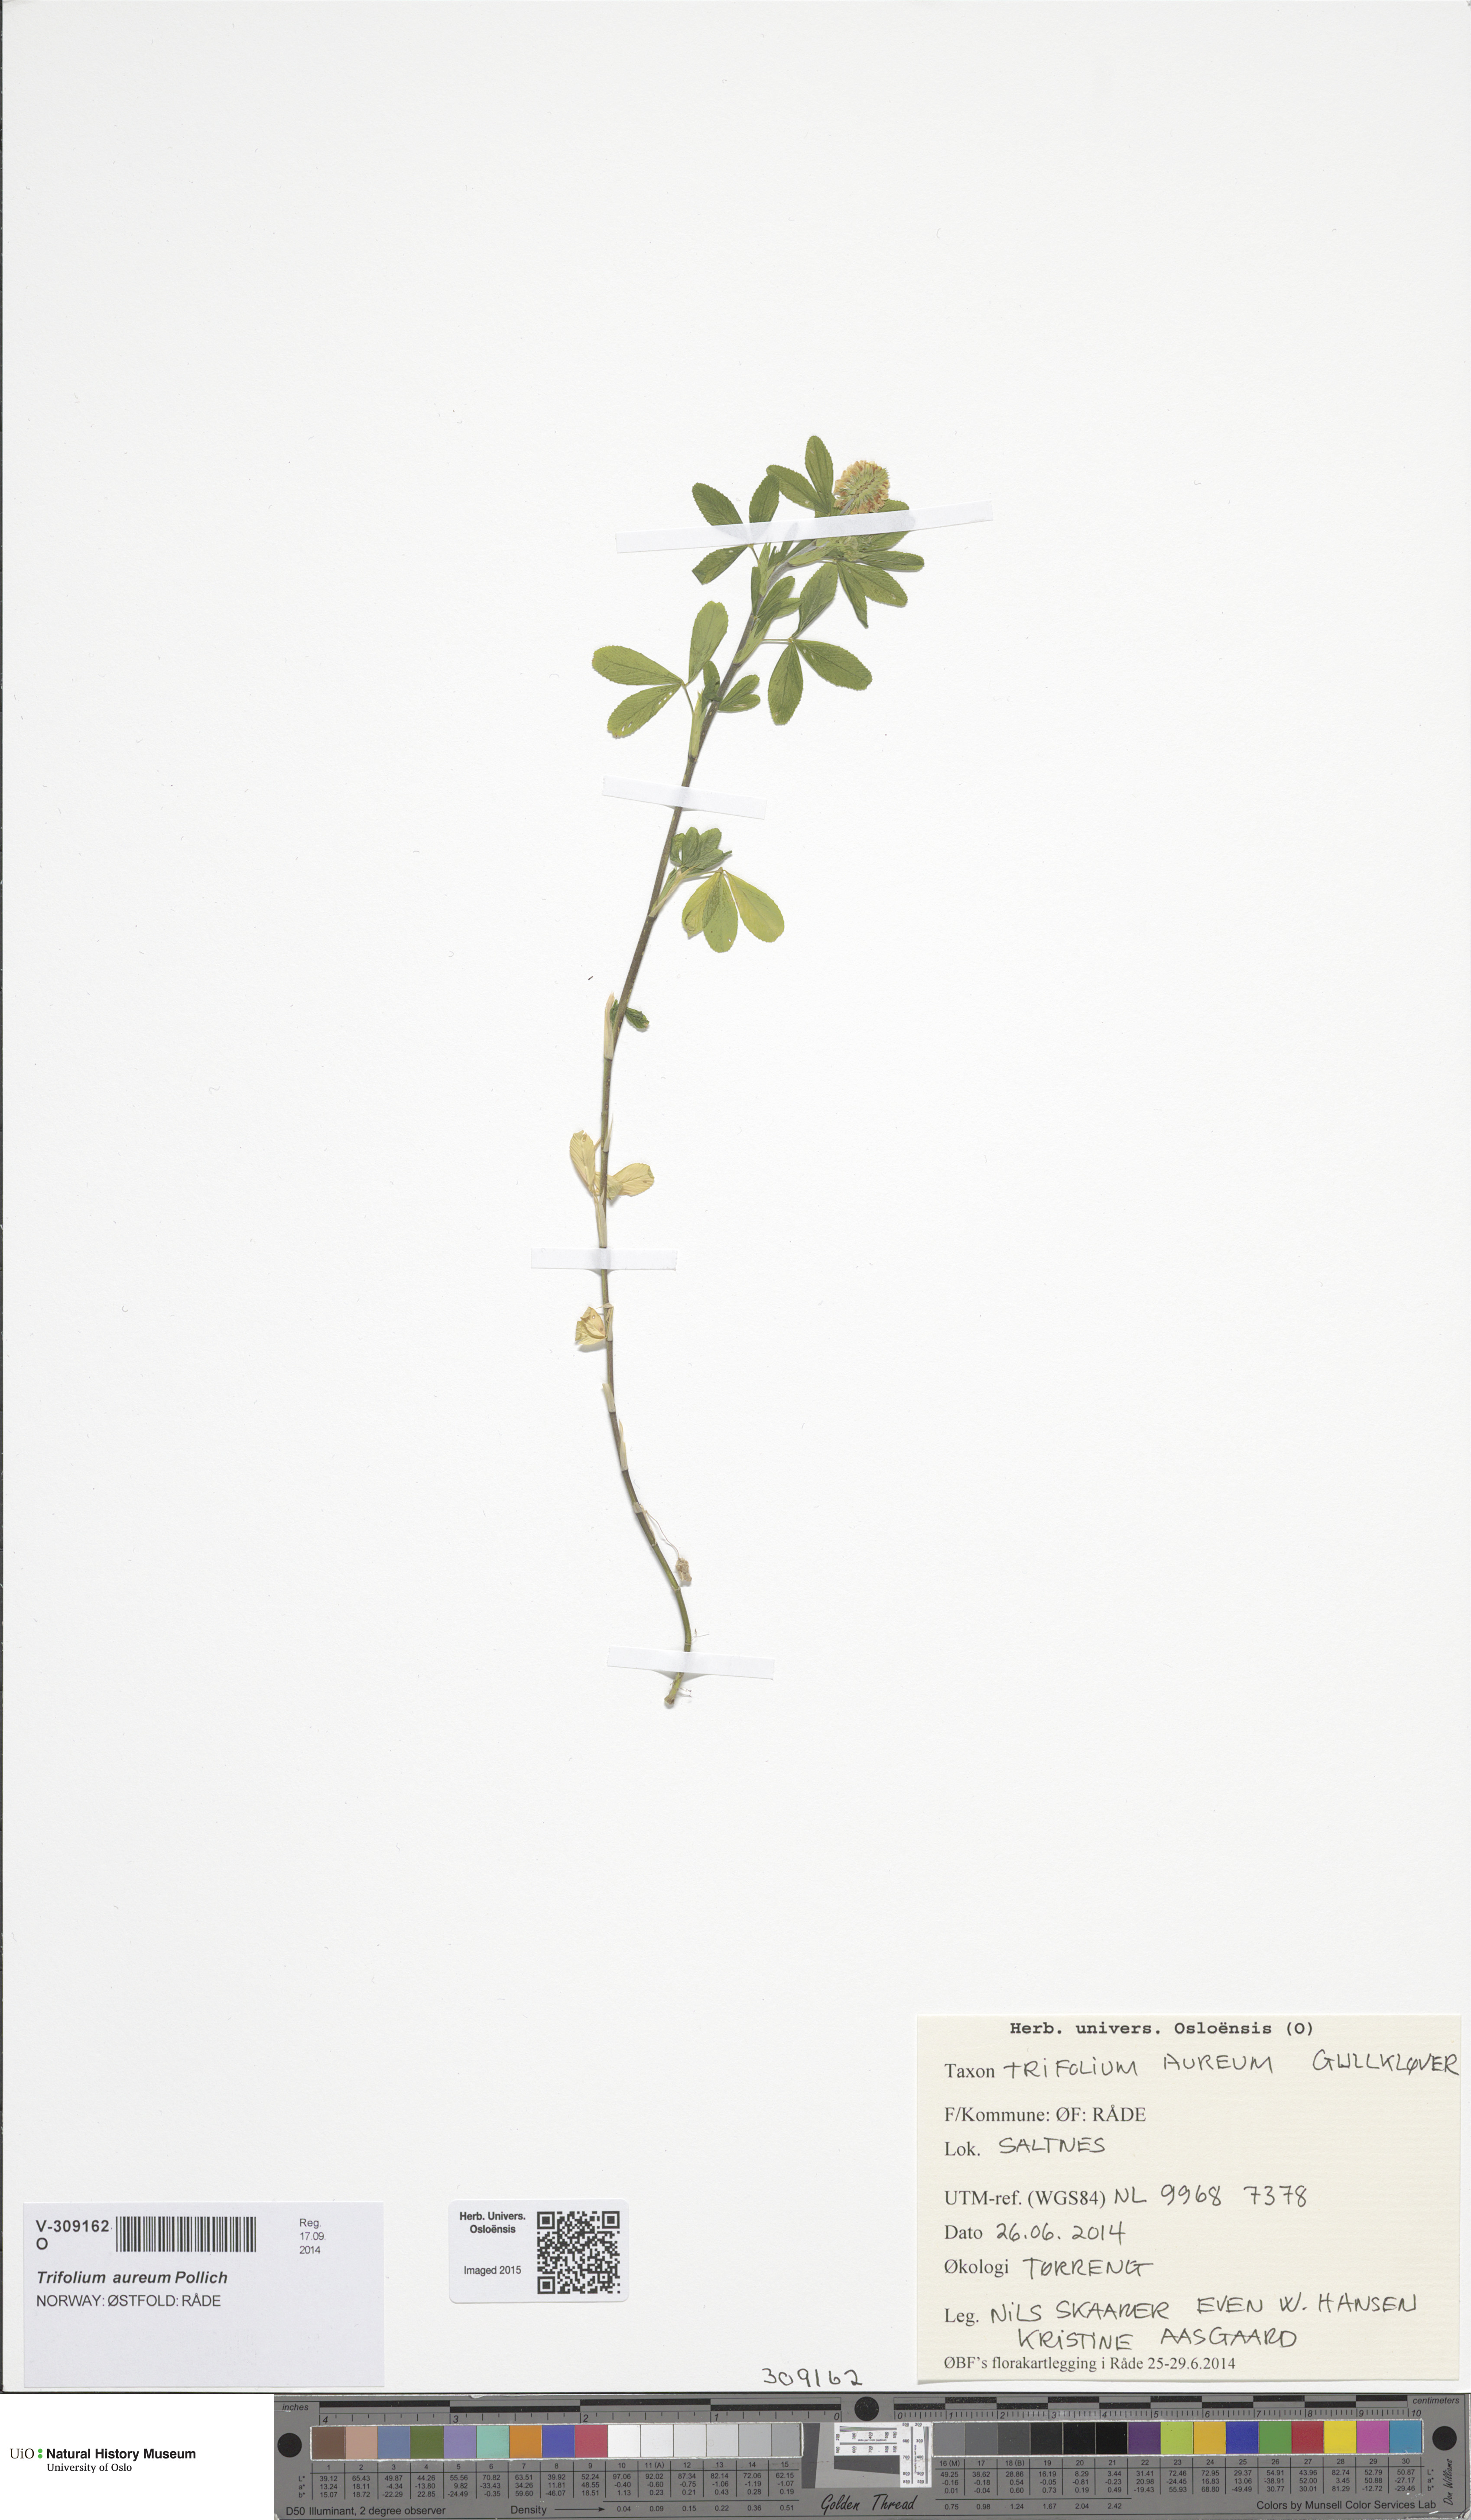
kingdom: Plantae
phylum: Tracheophyta
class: Magnoliopsida
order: Fabales
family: Fabaceae
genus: Trifolium
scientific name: Trifolium aureum
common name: Golden clover
